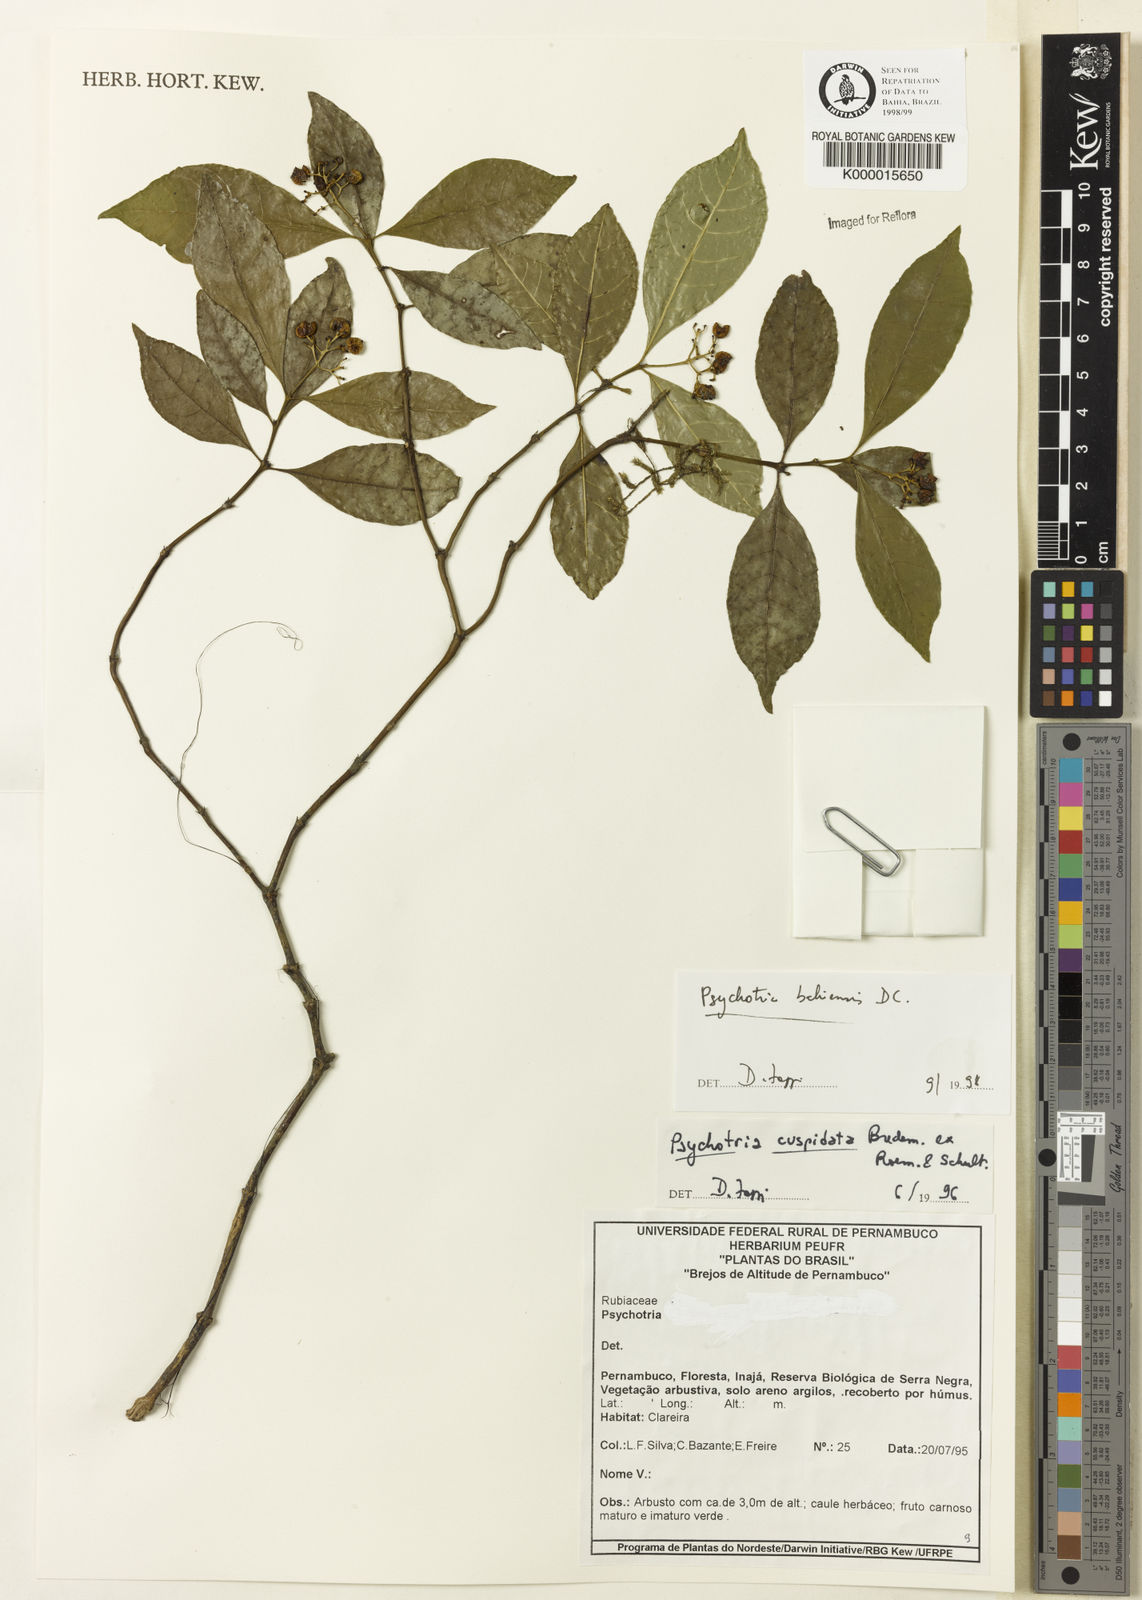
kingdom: Plantae
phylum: Tracheophyta
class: Magnoliopsida
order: Gentianales
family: Rubiaceae
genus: Psychotria
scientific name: Psychotria bahiensis
